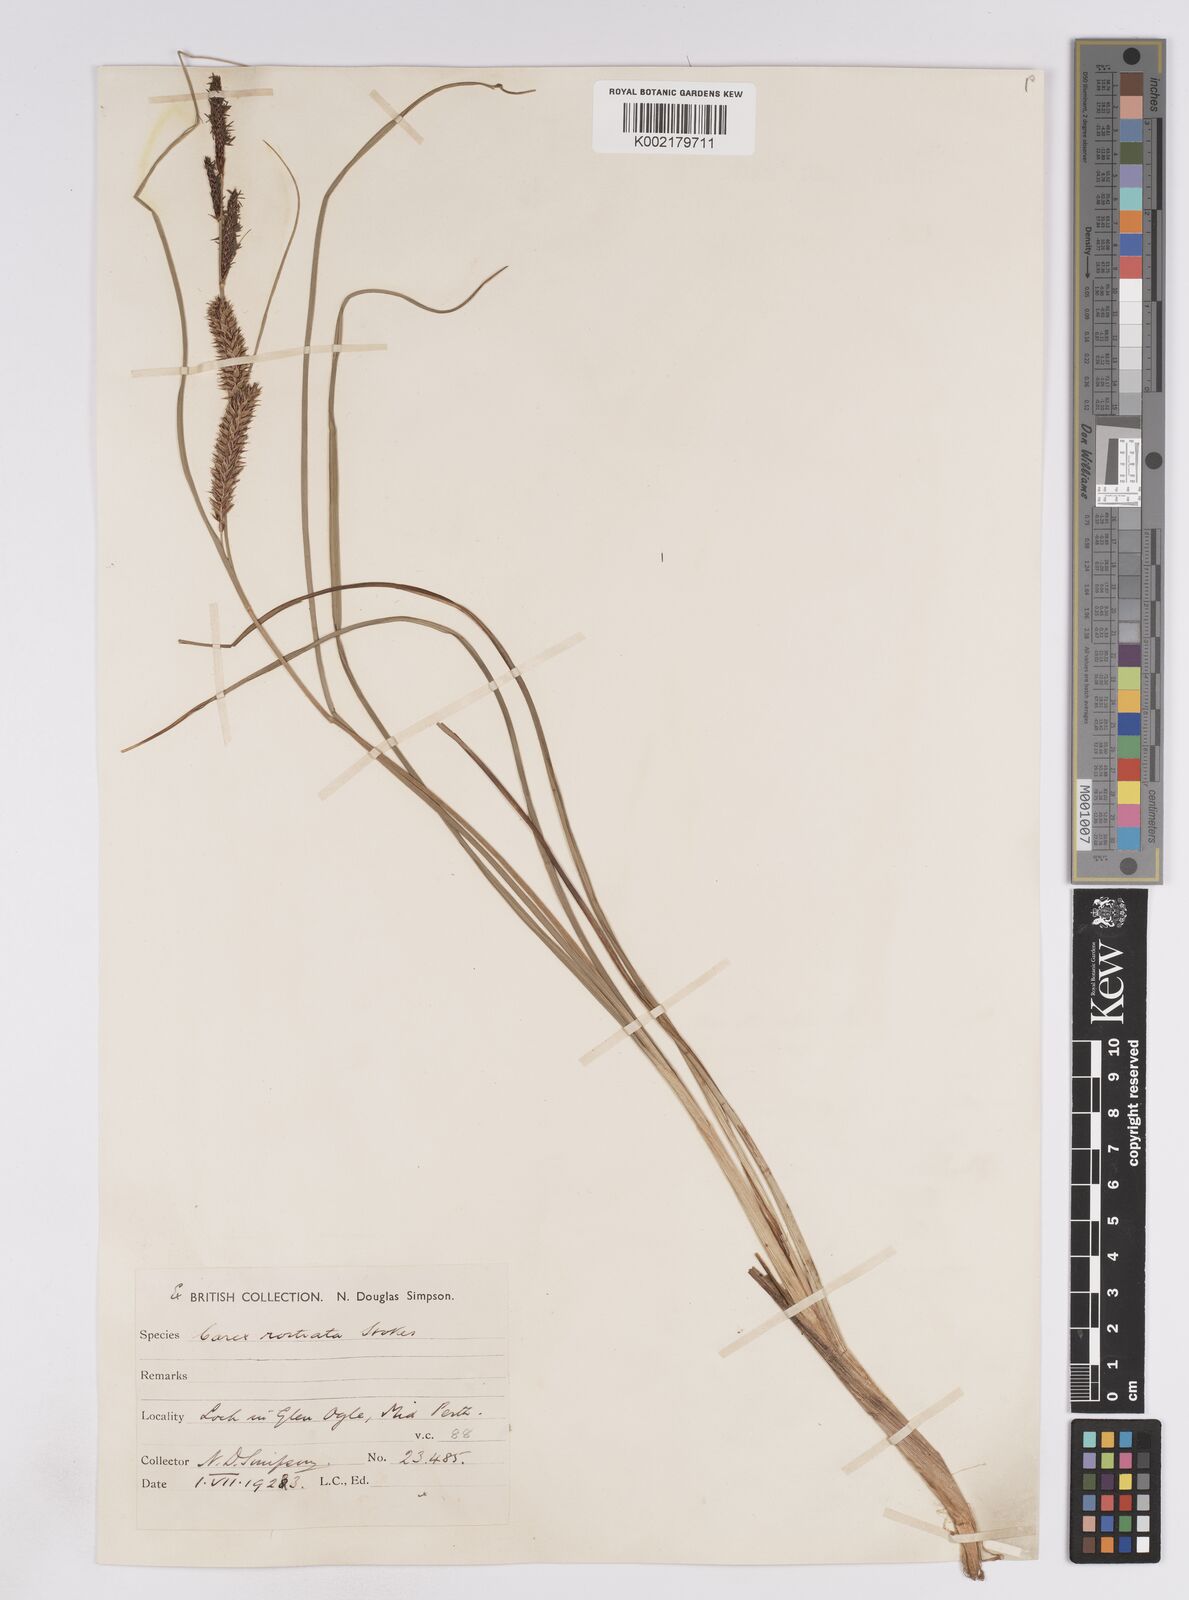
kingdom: Plantae
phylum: Tracheophyta
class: Liliopsida
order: Poales
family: Cyperaceae
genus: Carex
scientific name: Carex rostrata
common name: Bottle sedge
